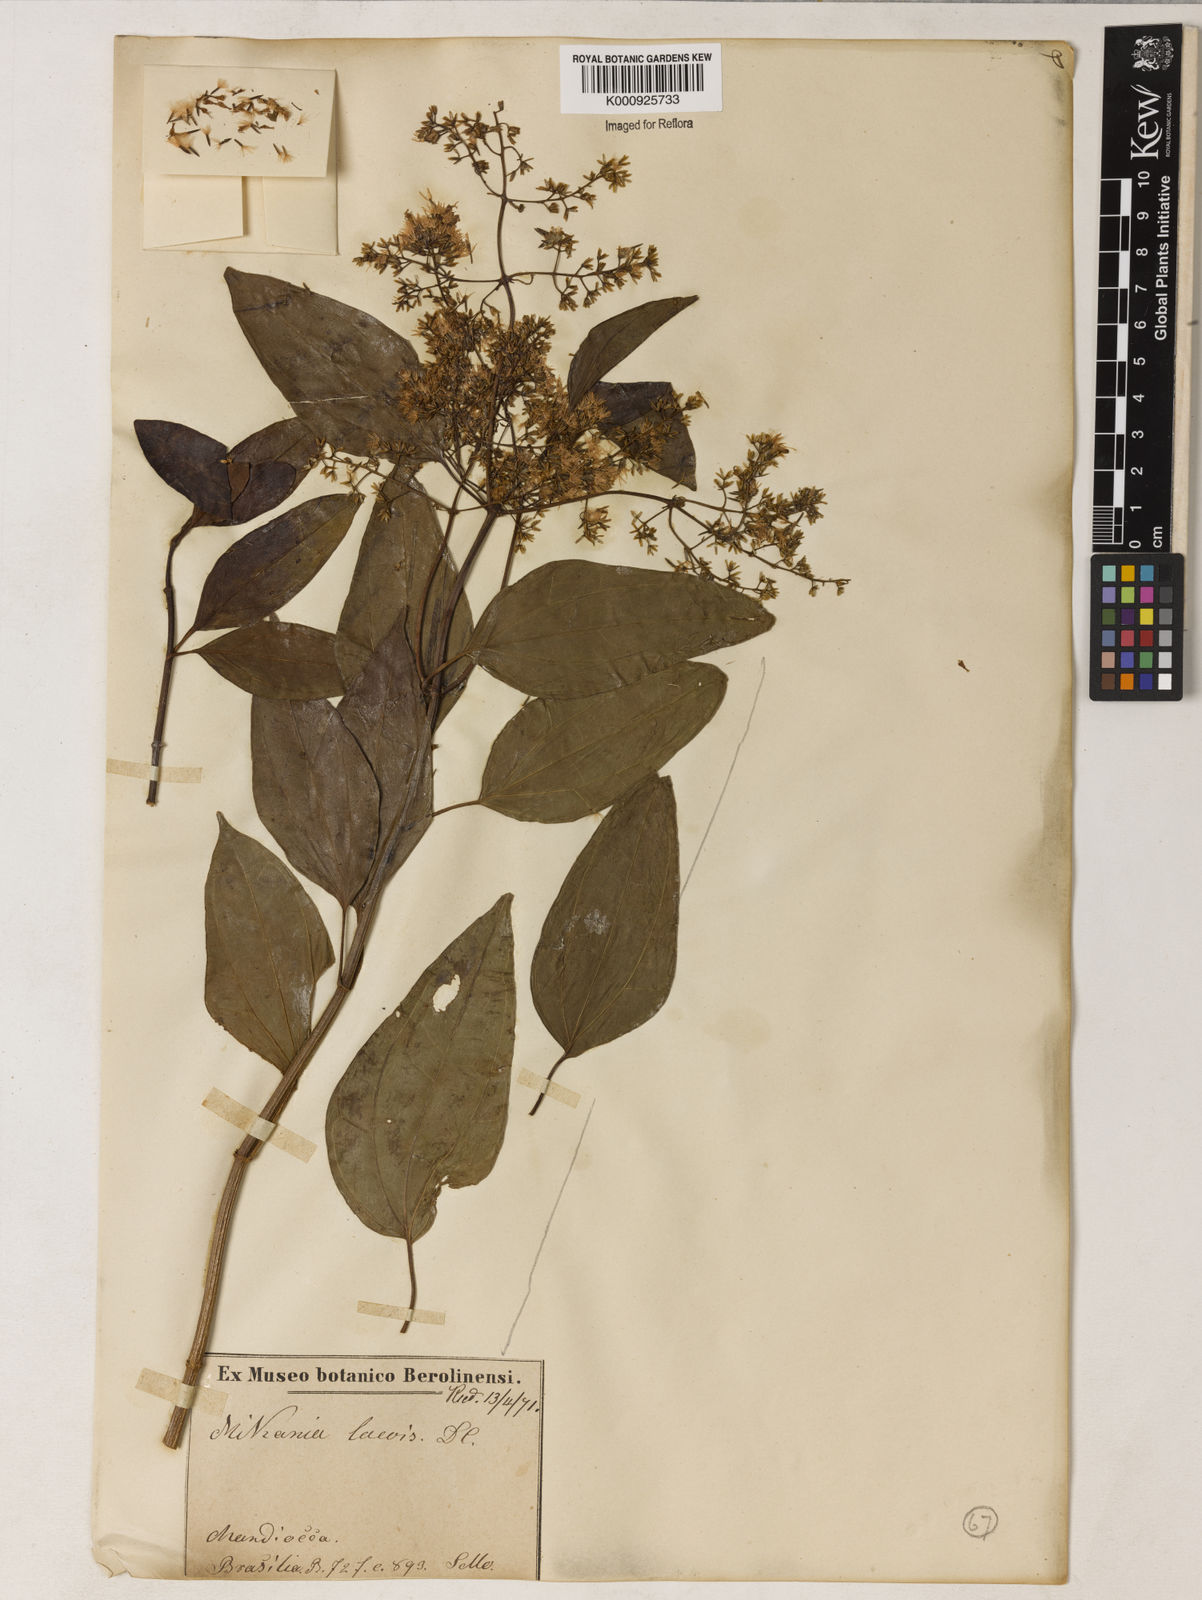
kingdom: Plantae
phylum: Tracheophyta
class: Magnoliopsida
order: Asterales
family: Asteraceae
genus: Mikania
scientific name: Mikania trinervis
